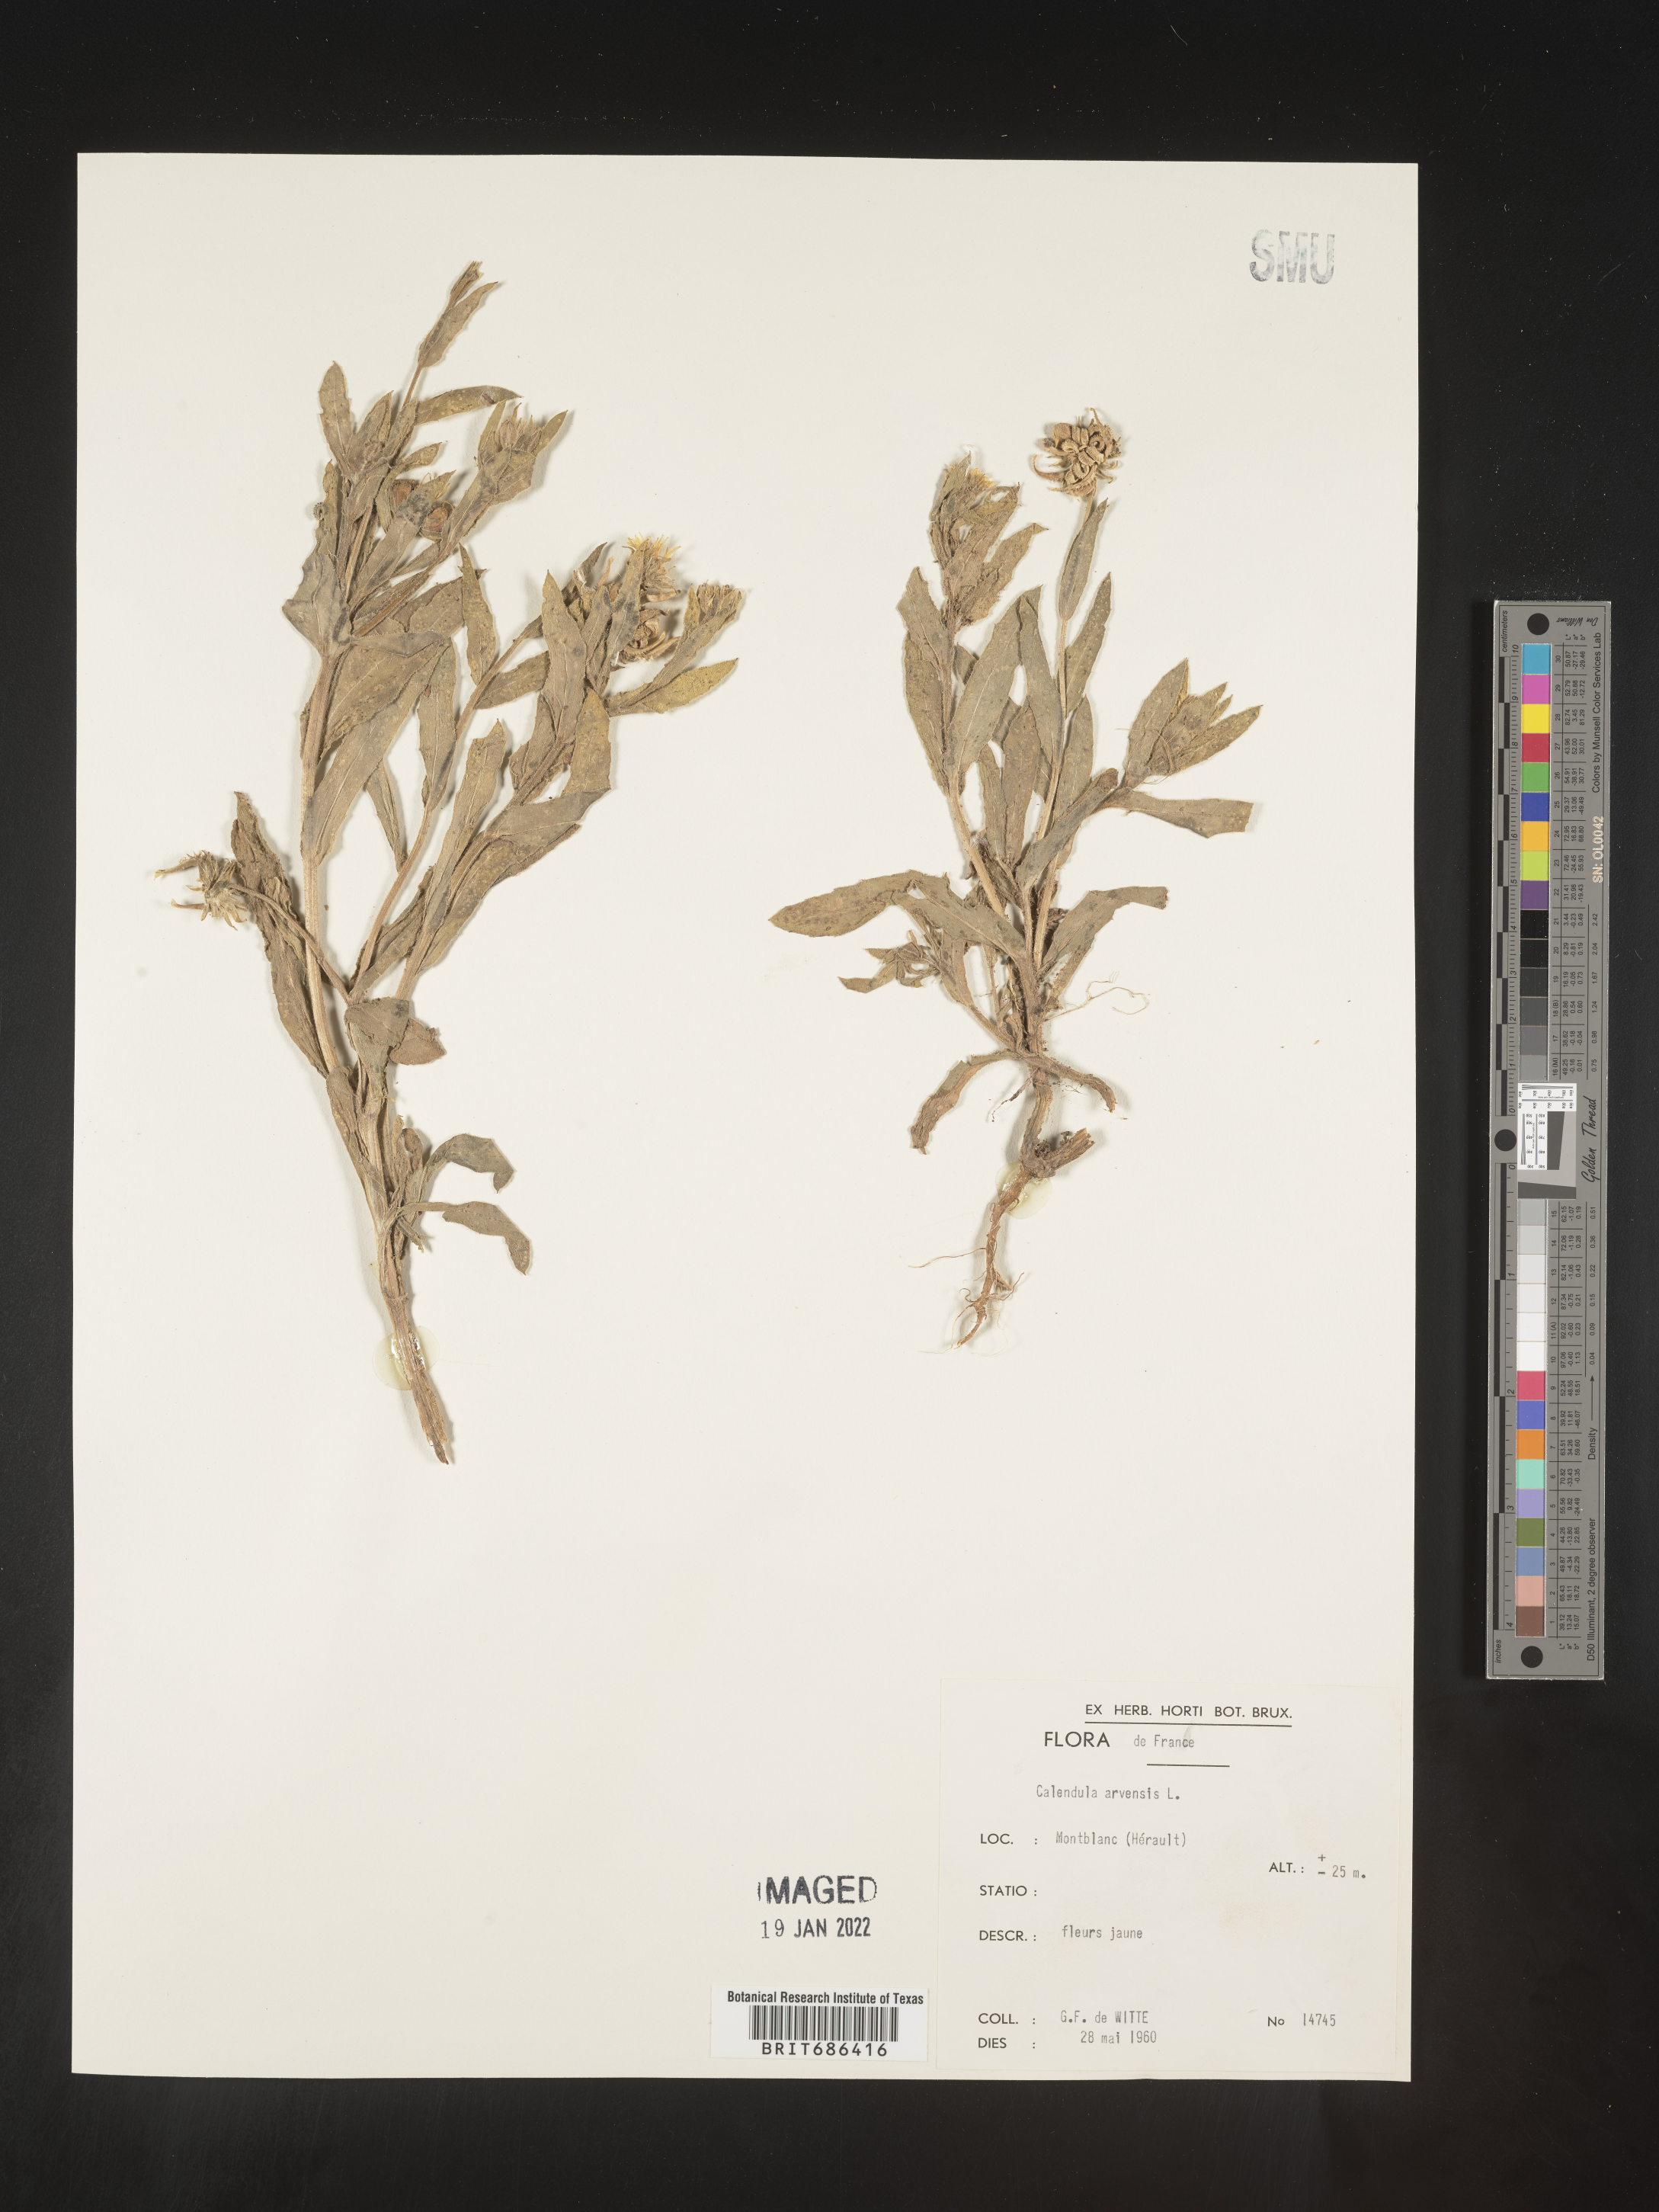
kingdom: Plantae
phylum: Tracheophyta
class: Magnoliopsida
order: Asterales
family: Asteraceae
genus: Calendula
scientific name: Calendula
